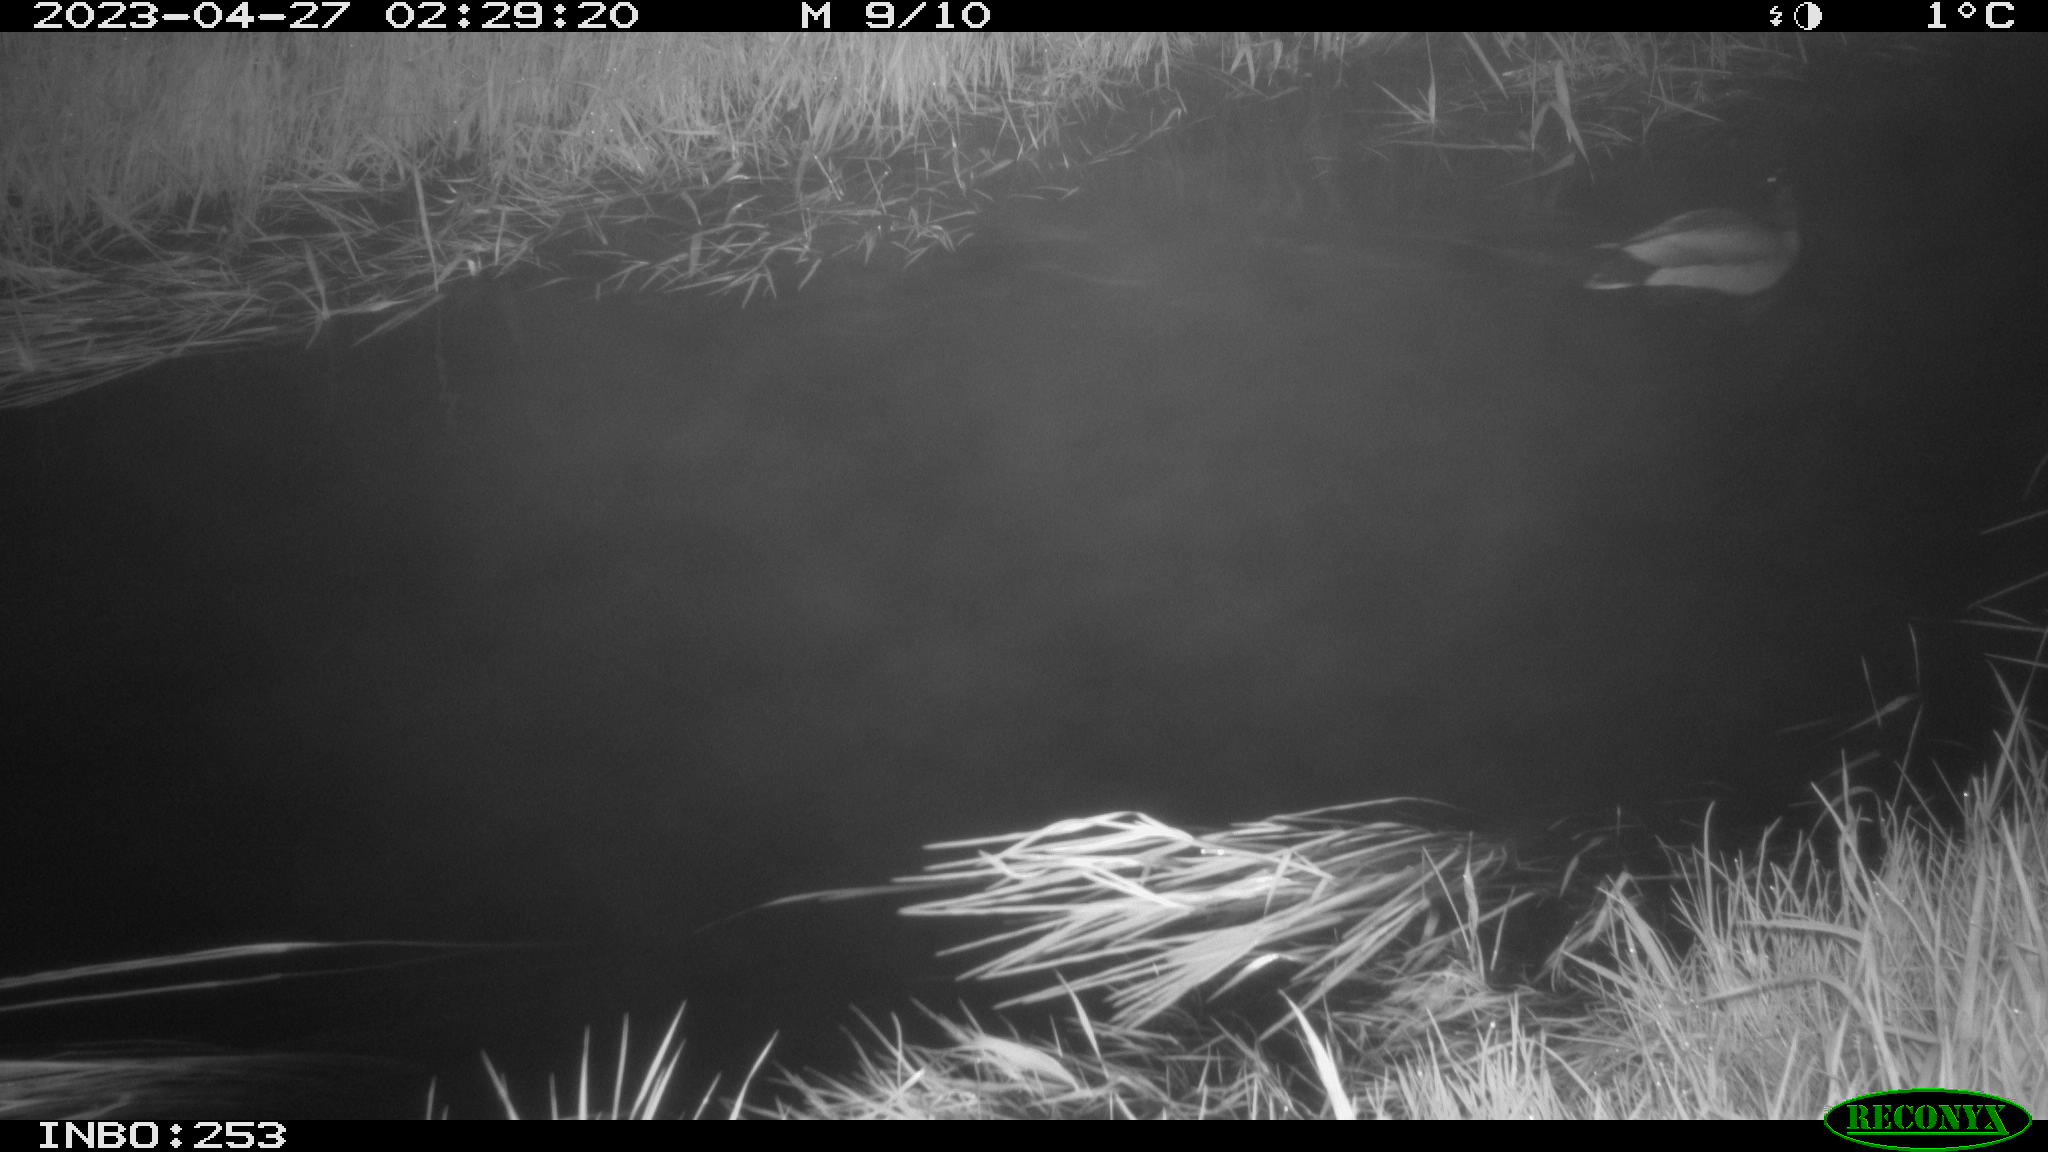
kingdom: Animalia
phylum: Chordata
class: Aves
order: Anseriformes
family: Anatidae
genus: Anas
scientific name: Anas
